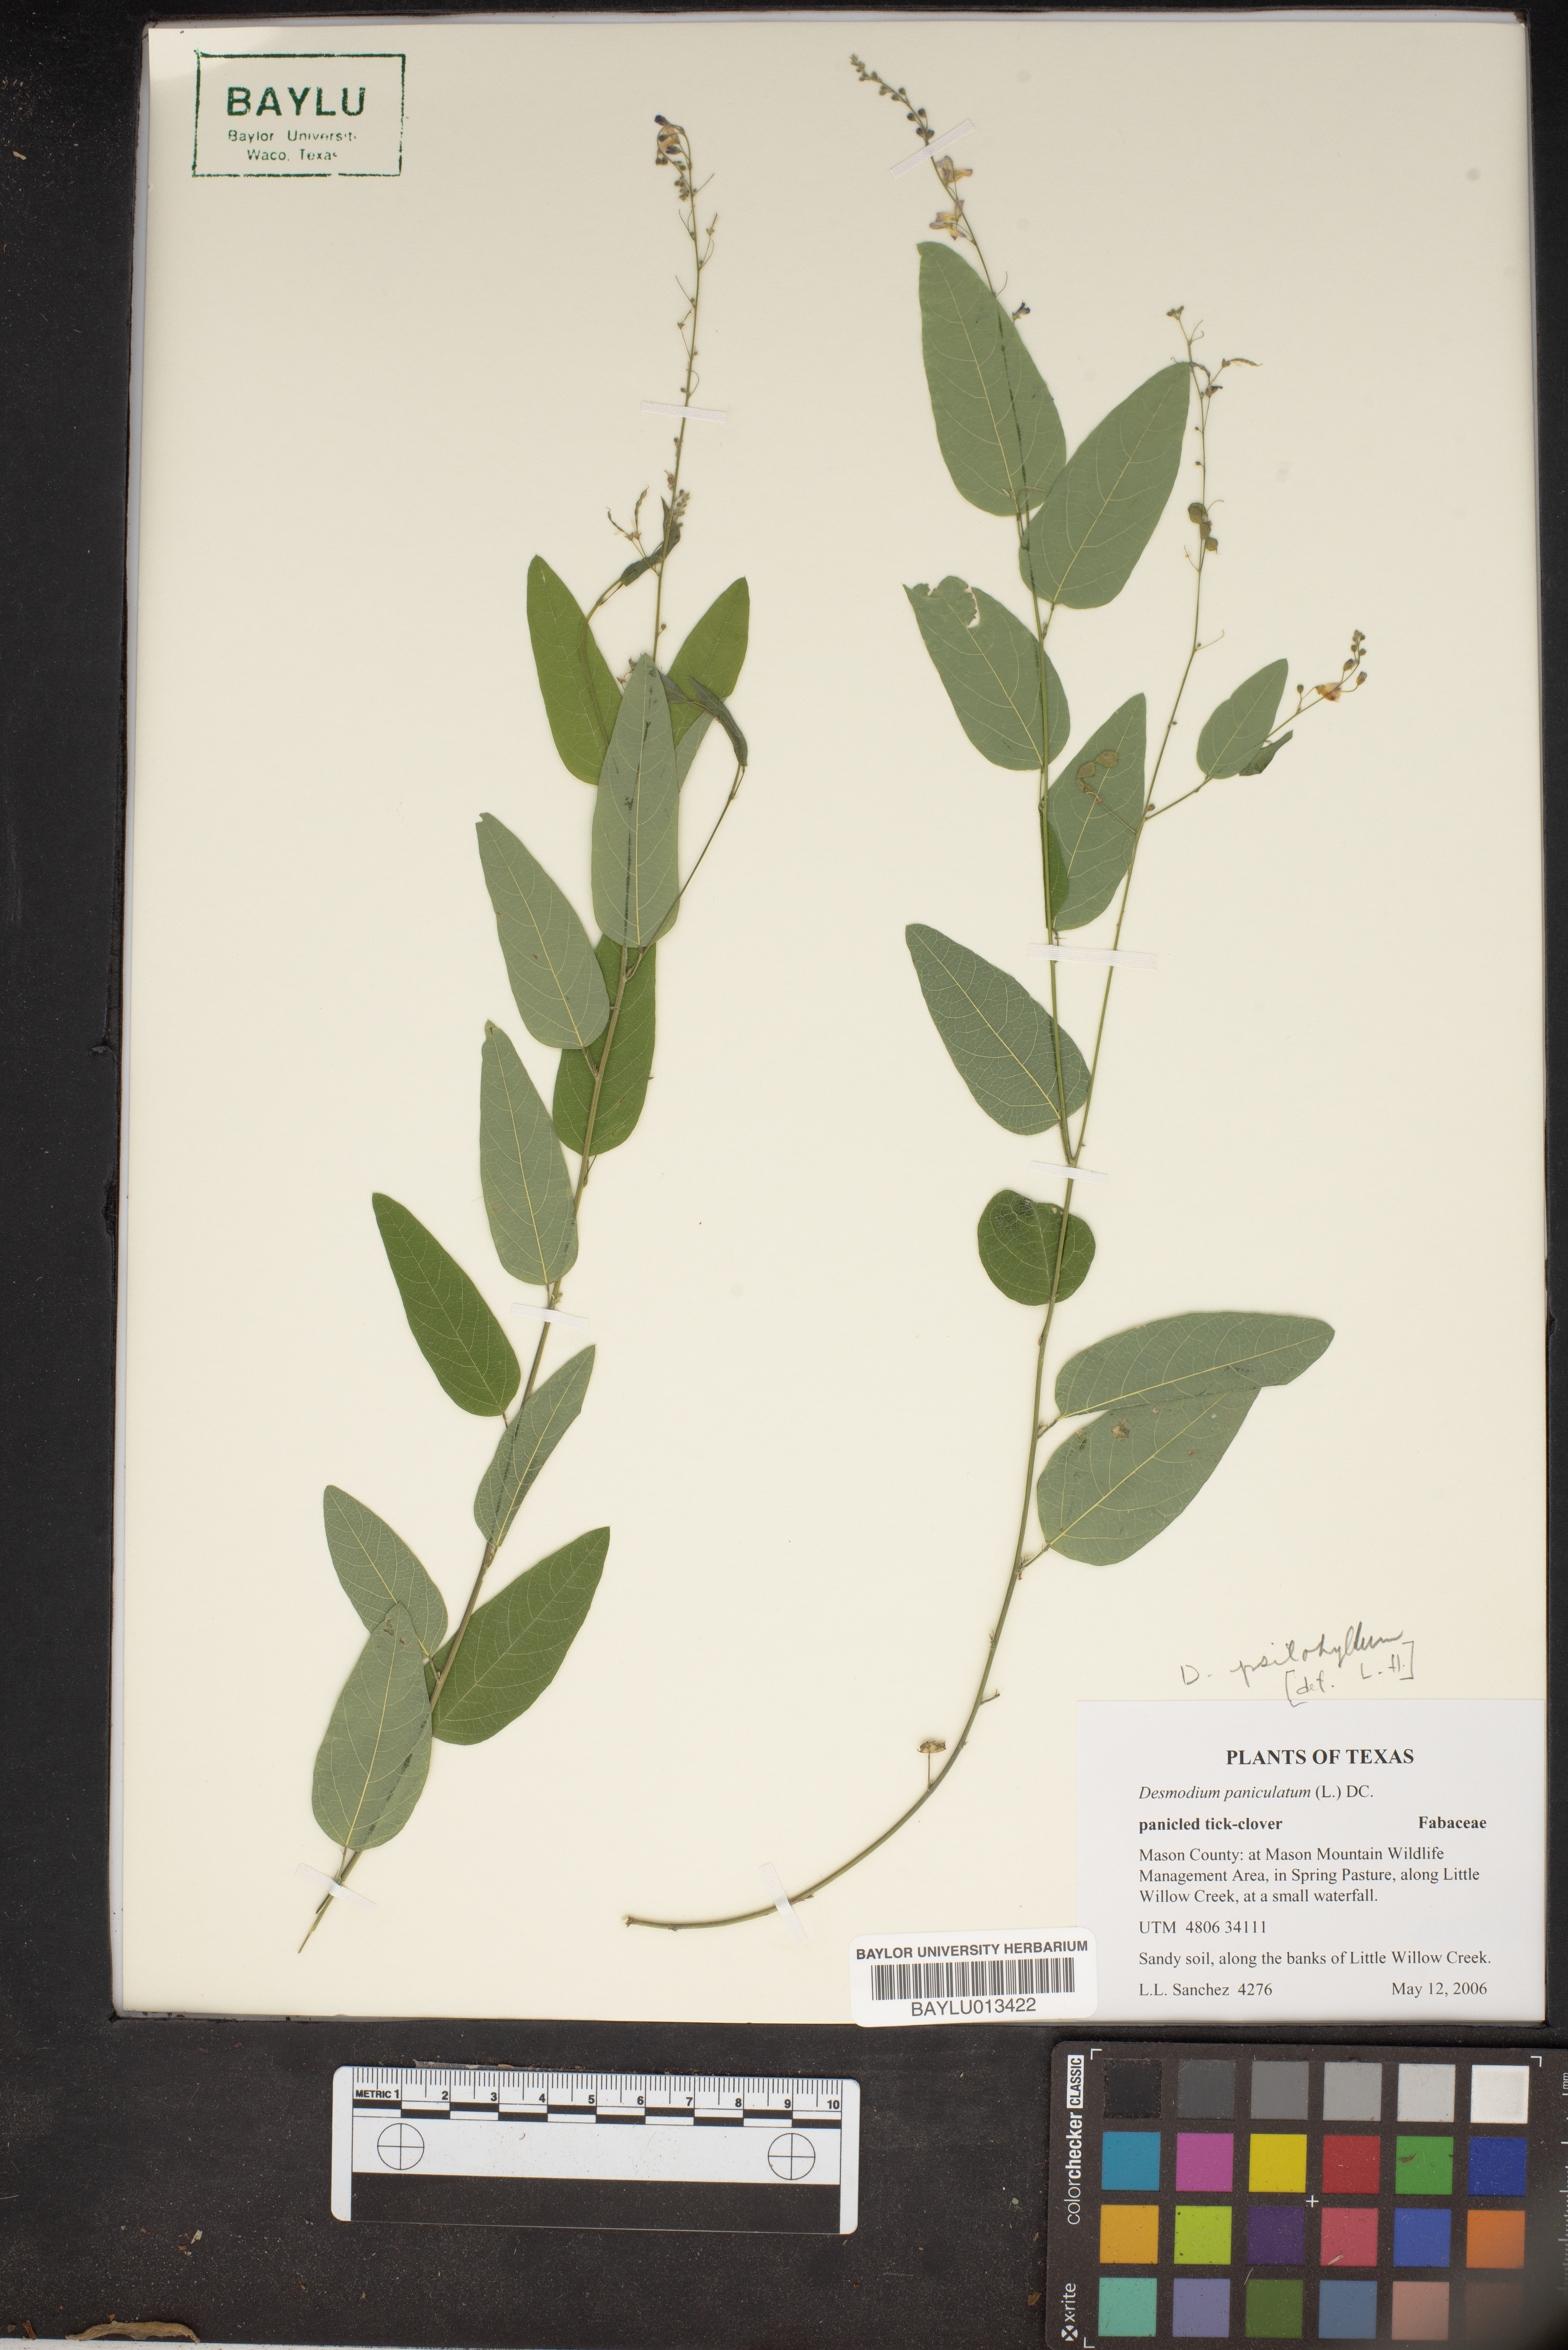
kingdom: Plantae
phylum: Tracheophyta
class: Magnoliopsida
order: Fabales
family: Fabaceae
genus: Desmodium
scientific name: Desmodium paniculatum
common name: Panicled tick-clover
